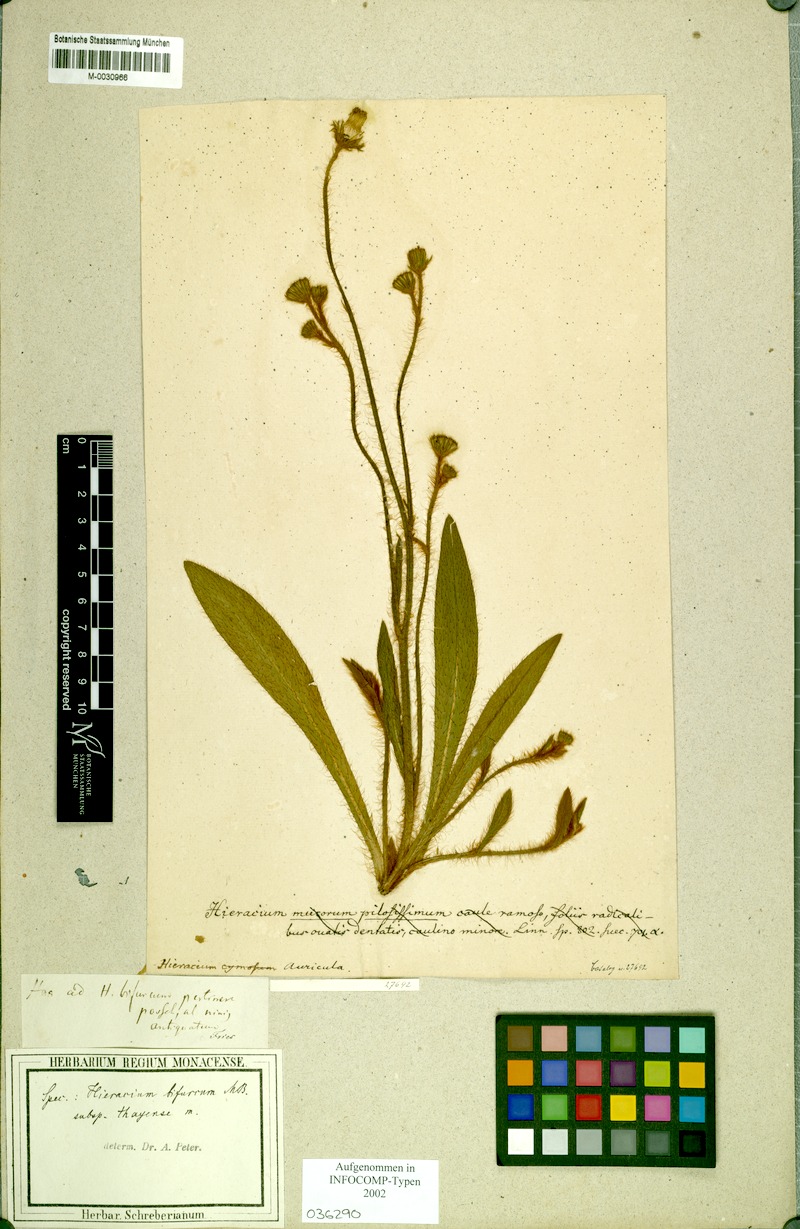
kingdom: Plantae
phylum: Tracheophyta
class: Magnoliopsida
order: Asterales
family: Asteraceae
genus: Pilosella
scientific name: Pilosella bifurca
